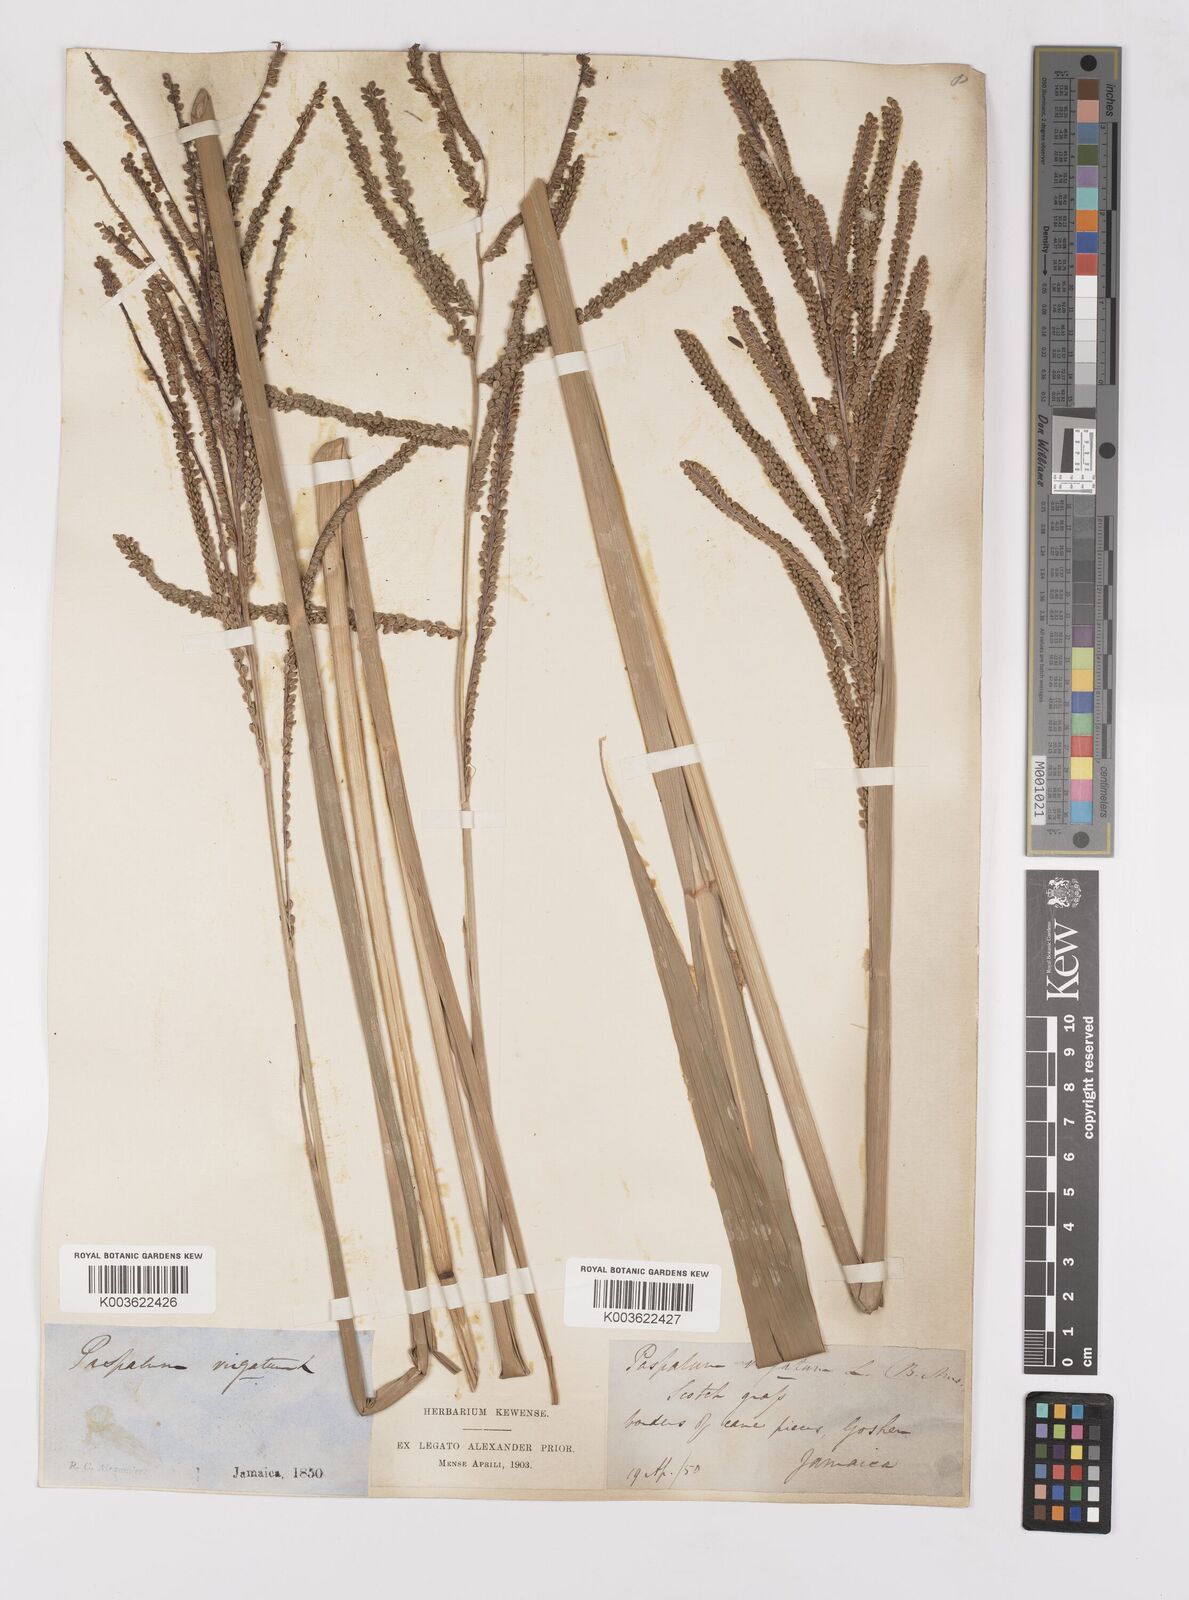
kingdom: Plantae
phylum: Tracheophyta
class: Liliopsida
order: Poales
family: Poaceae
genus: Paspalum
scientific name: Paspalum virgatum
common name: Talquezal
